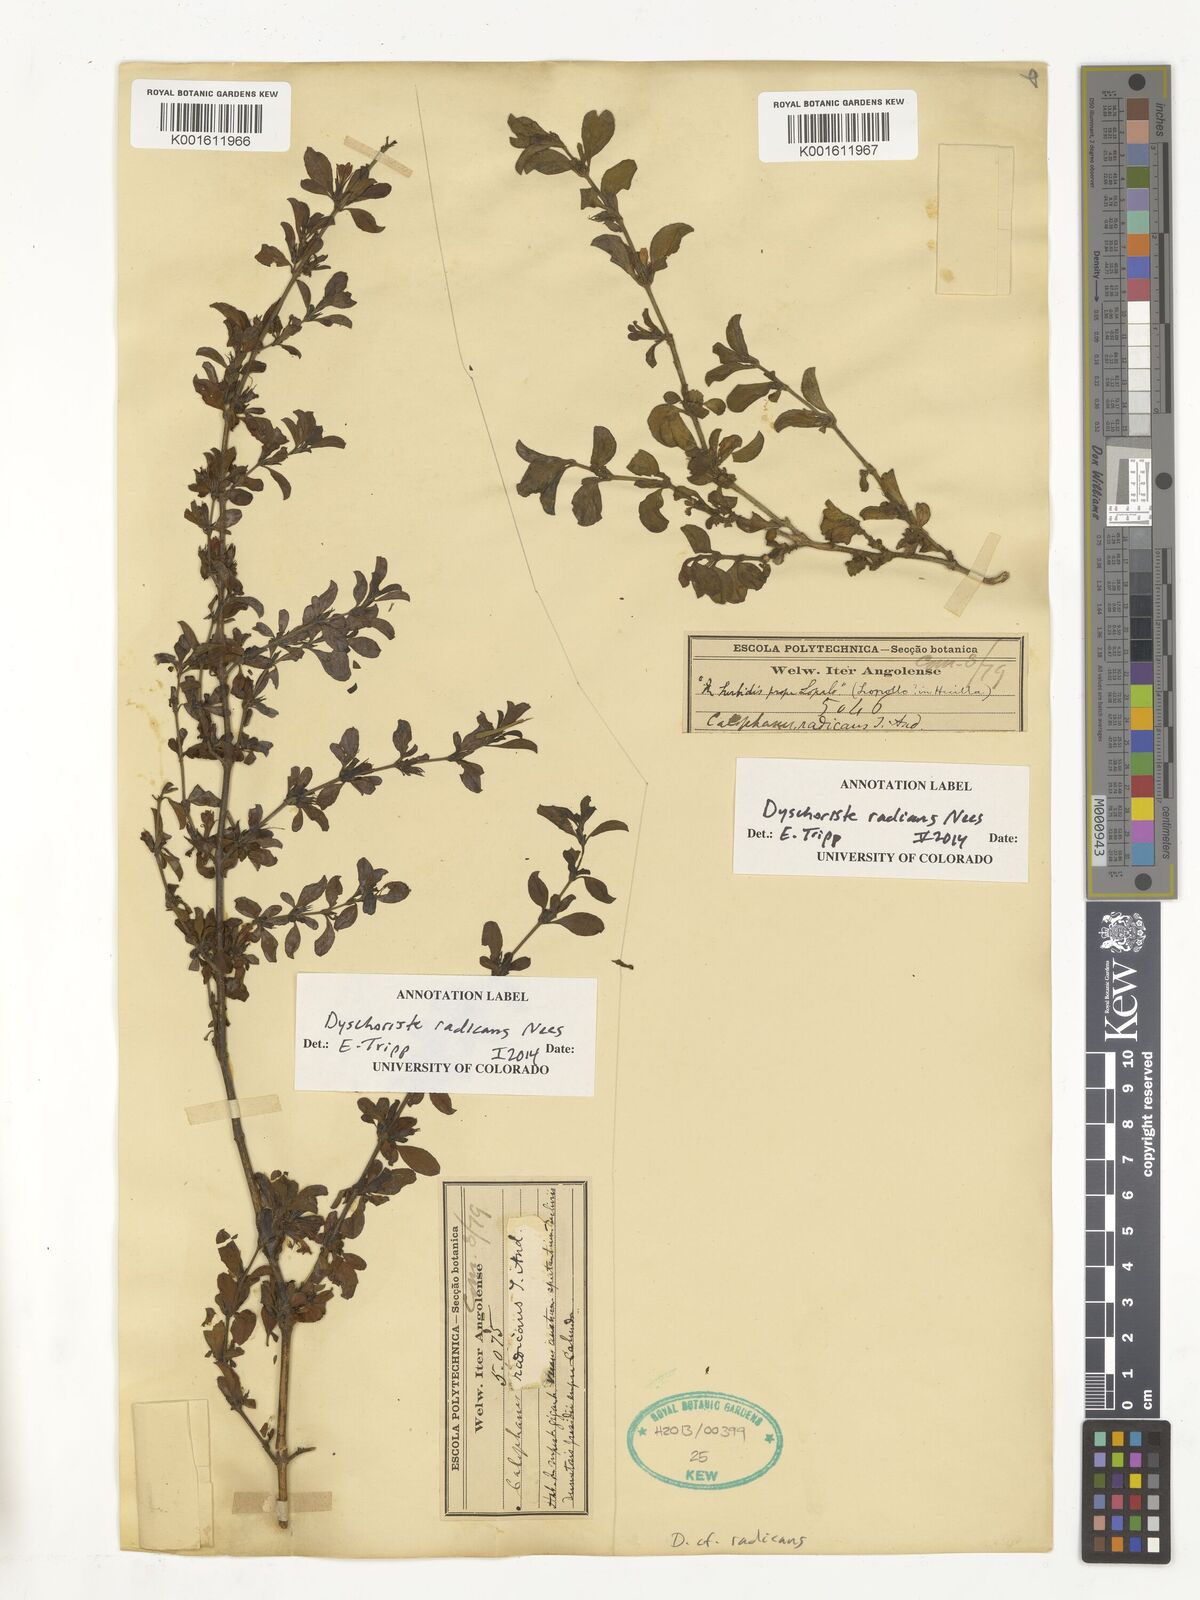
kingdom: Plantae
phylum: Tracheophyta
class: Magnoliopsida
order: Lamiales
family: Acanthaceae
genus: Dyschoriste
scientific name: Dyschoriste radicans
